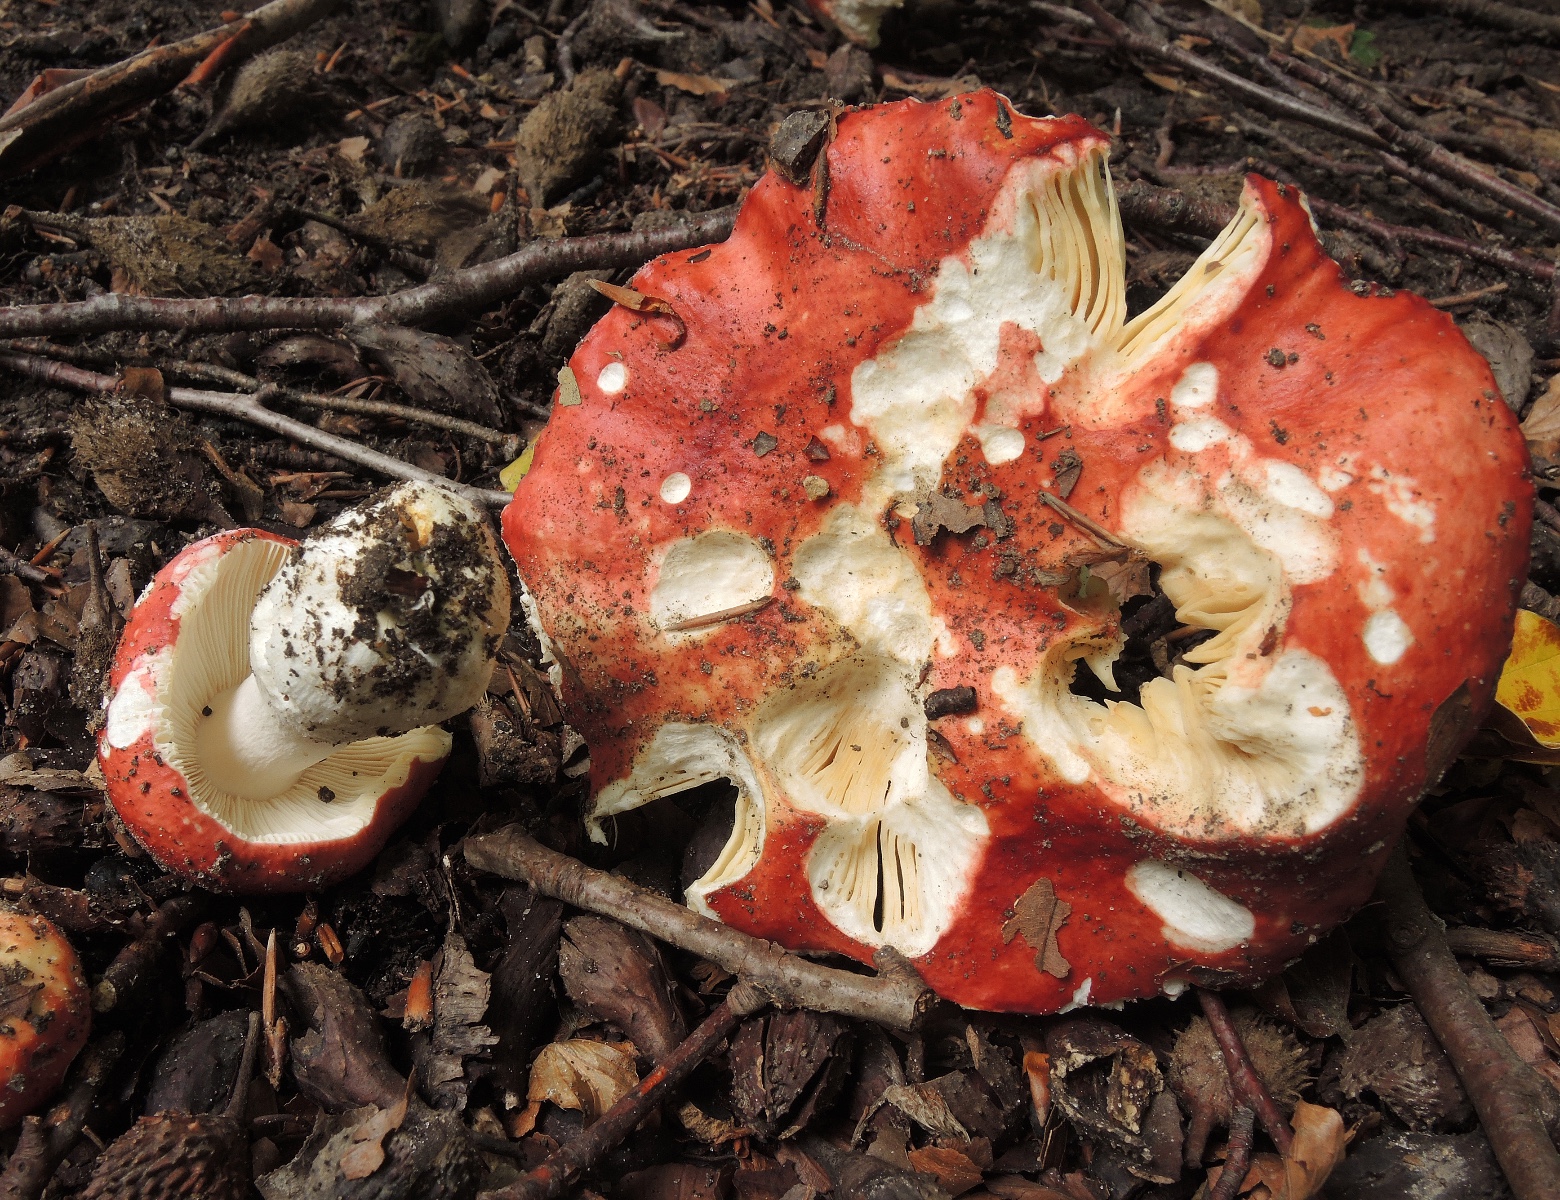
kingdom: Fungi
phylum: Basidiomycota
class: Agaricomycetes
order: Russulales
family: Russulaceae
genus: Russula
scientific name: Russula
